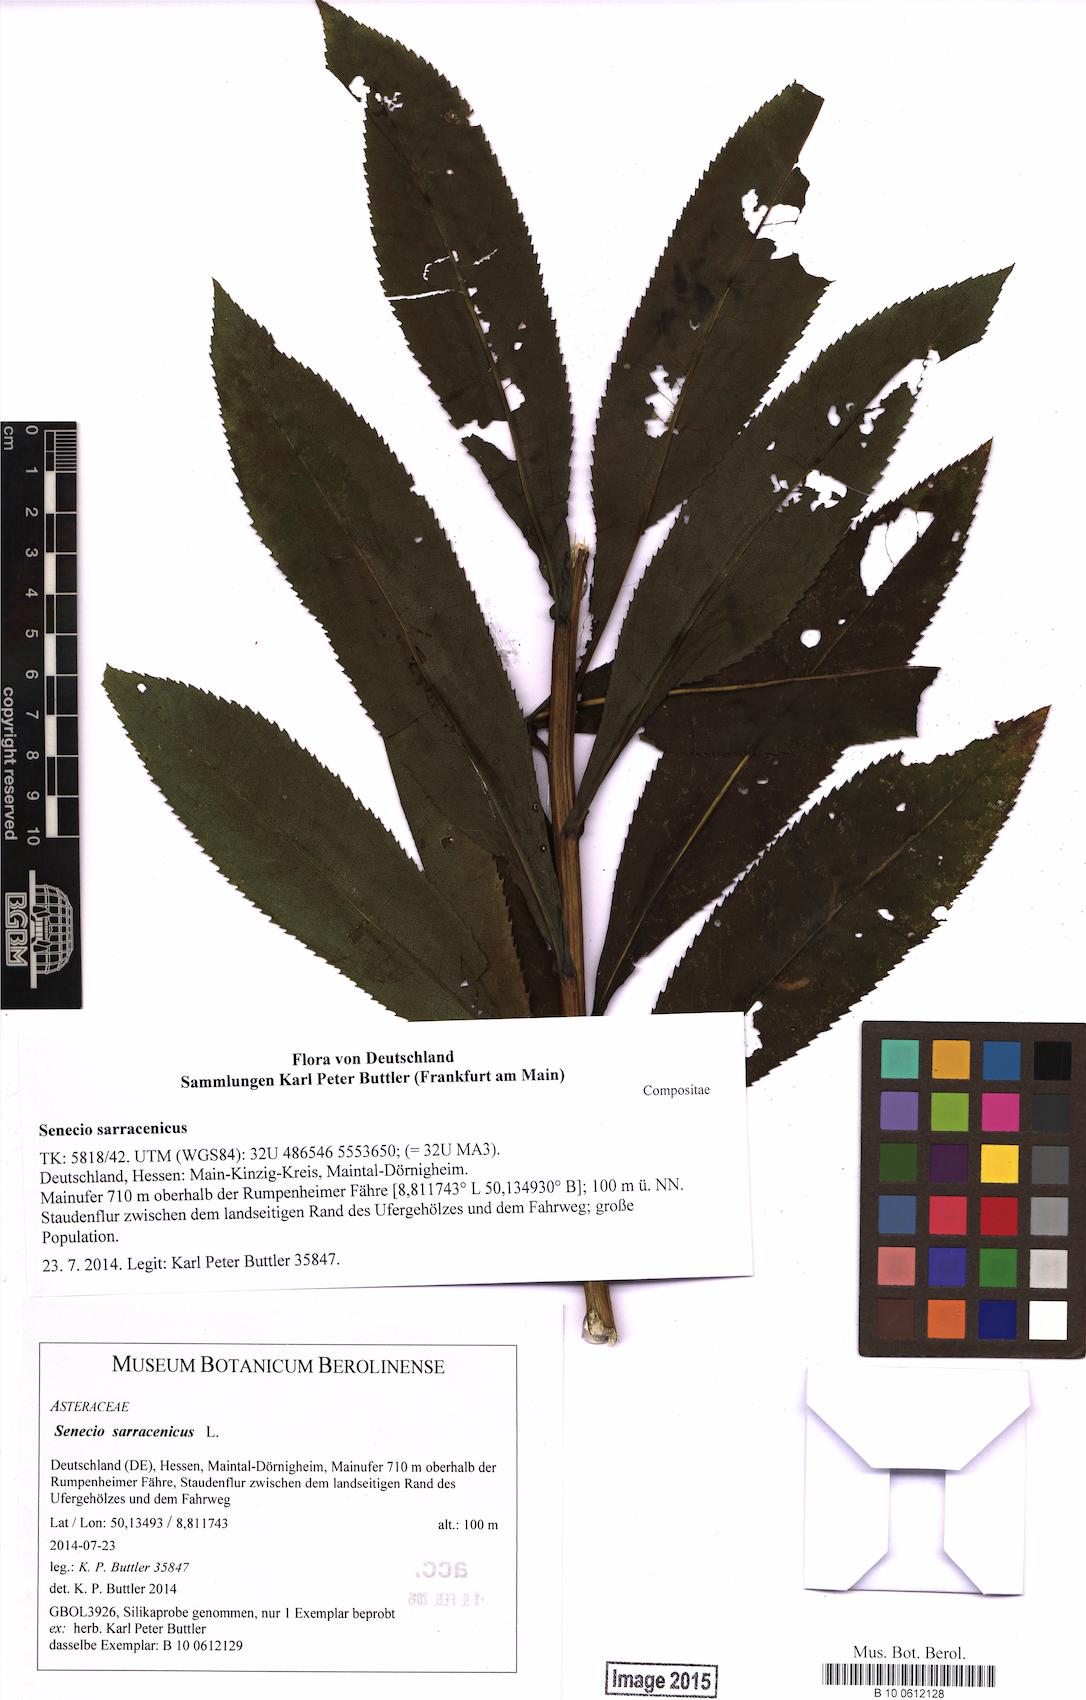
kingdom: Plantae
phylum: Tracheophyta
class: Magnoliopsida
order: Asterales
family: Asteraceae
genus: Senecio
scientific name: Senecio sarracenicus
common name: Broad-leaved ragwort
